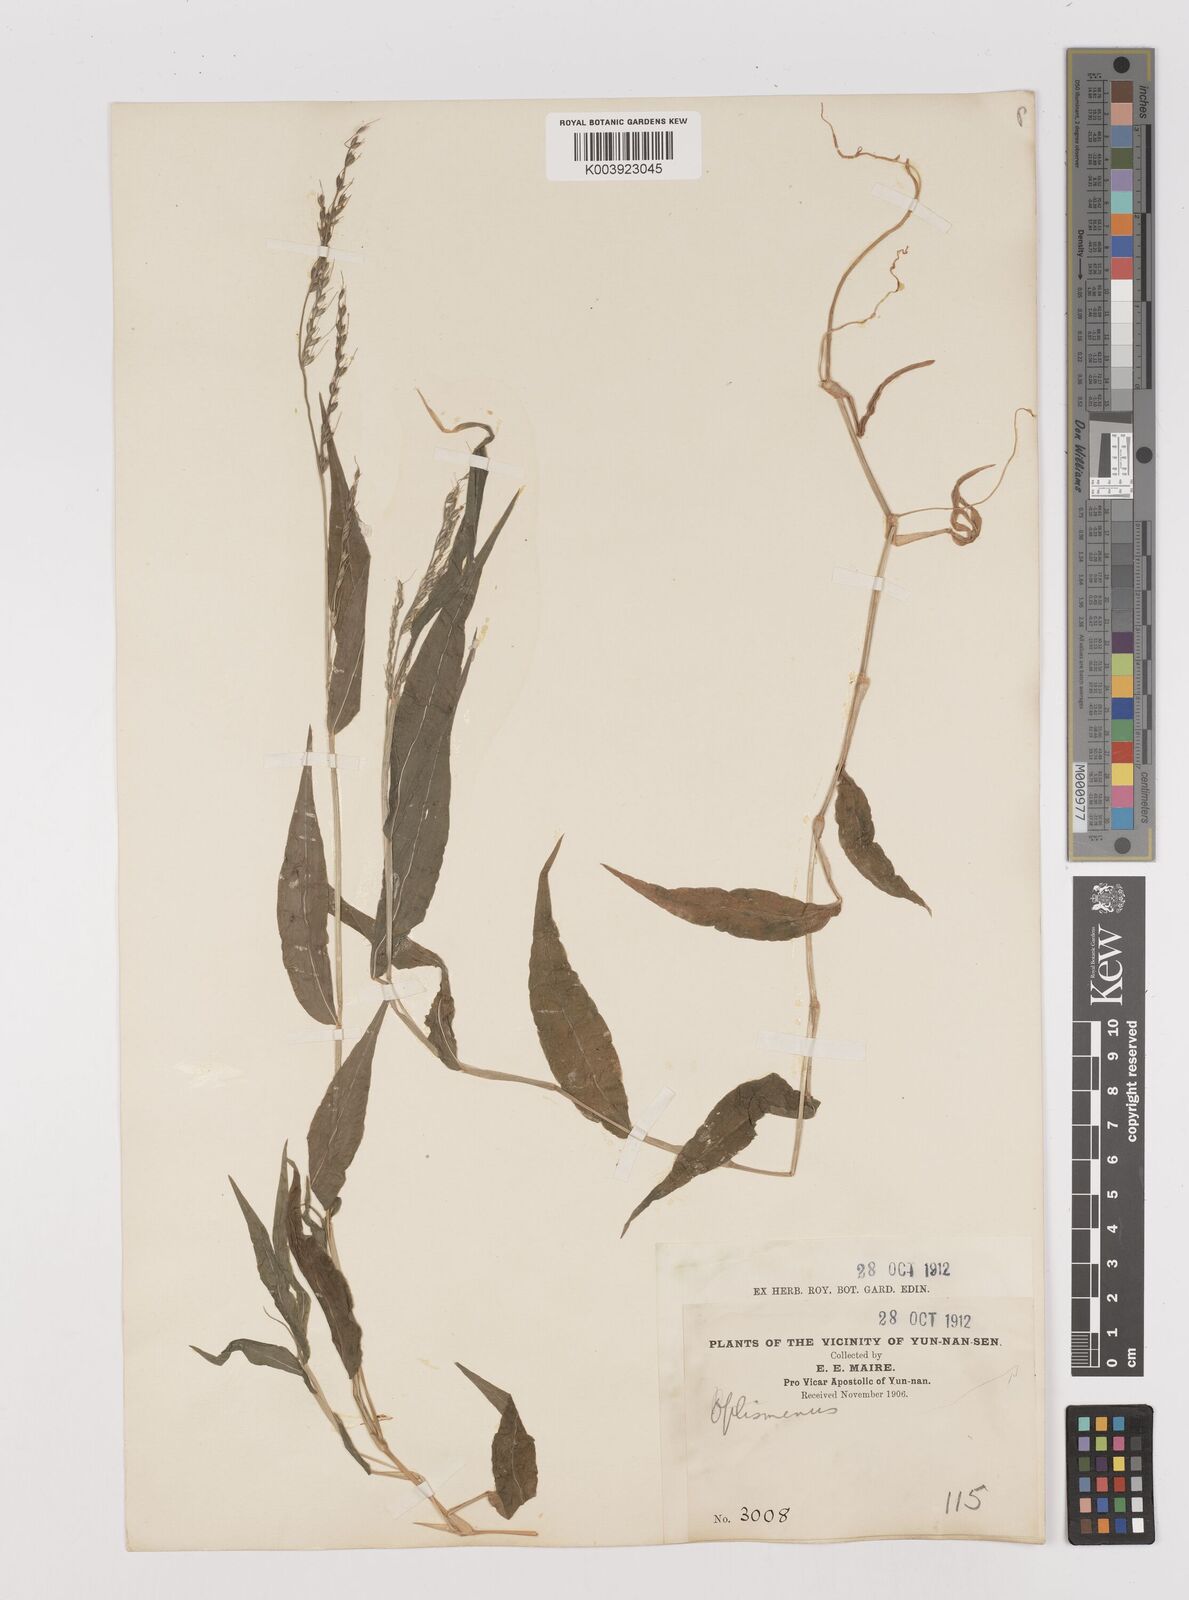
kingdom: Plantae
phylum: Tracheophyta
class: Liliopsida
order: Poales
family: Poaceae
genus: Oplismenus
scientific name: Oplismenus compositus
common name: Running mountain grass
